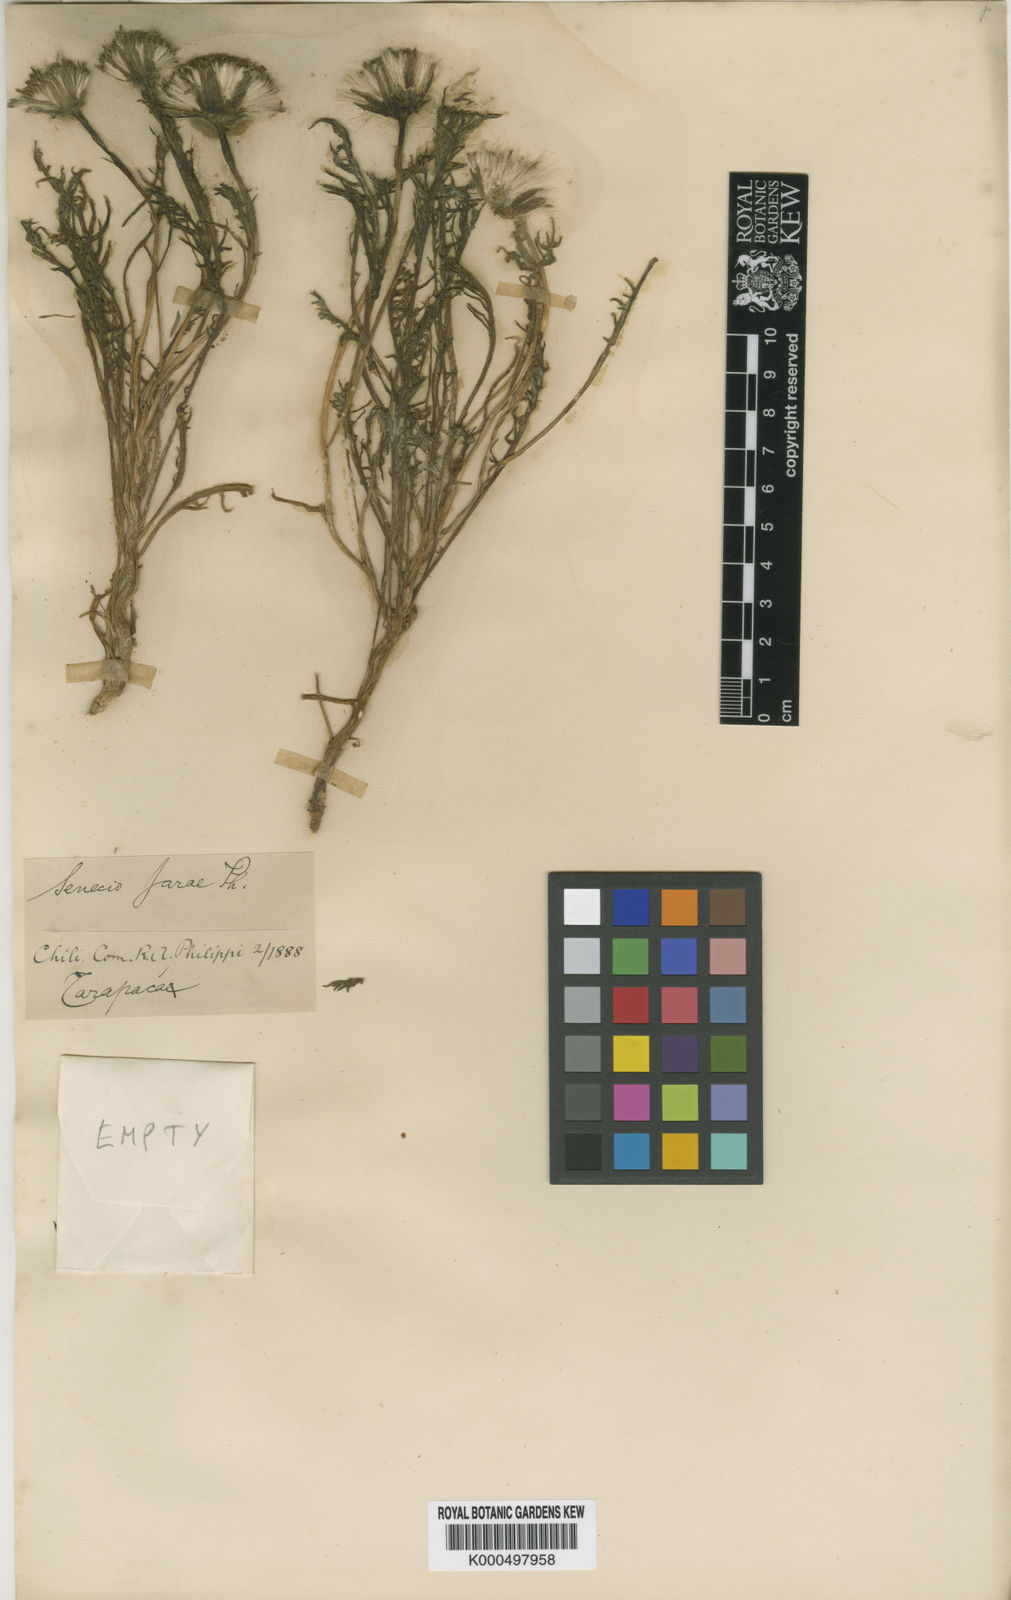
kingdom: Plantae
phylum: Tracheophyta
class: Magnoliopsida
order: Asterales
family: Asteraceae
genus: Senecio
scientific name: Senecio jarae
